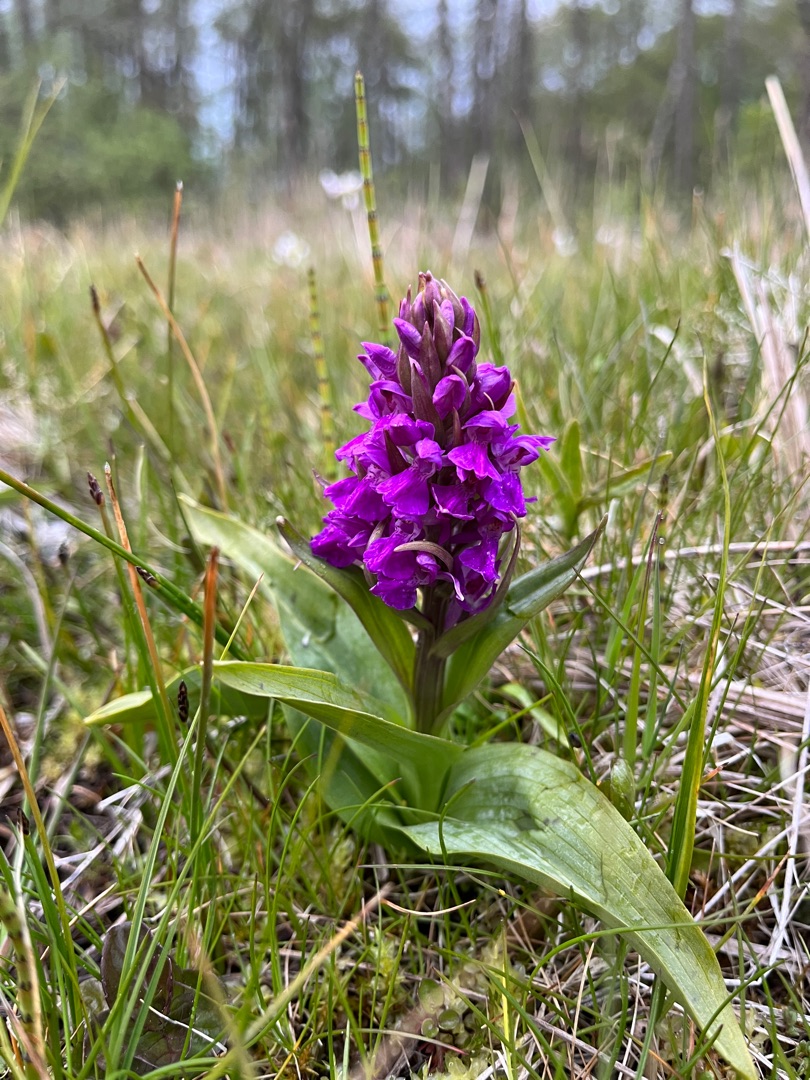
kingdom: Plantae
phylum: Tracheophyta
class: Liliopsida
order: Asparagales
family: Orchidaceae
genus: Dactylorhiza
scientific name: Dactylorhiza majalis
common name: Maj-gøgeurt
